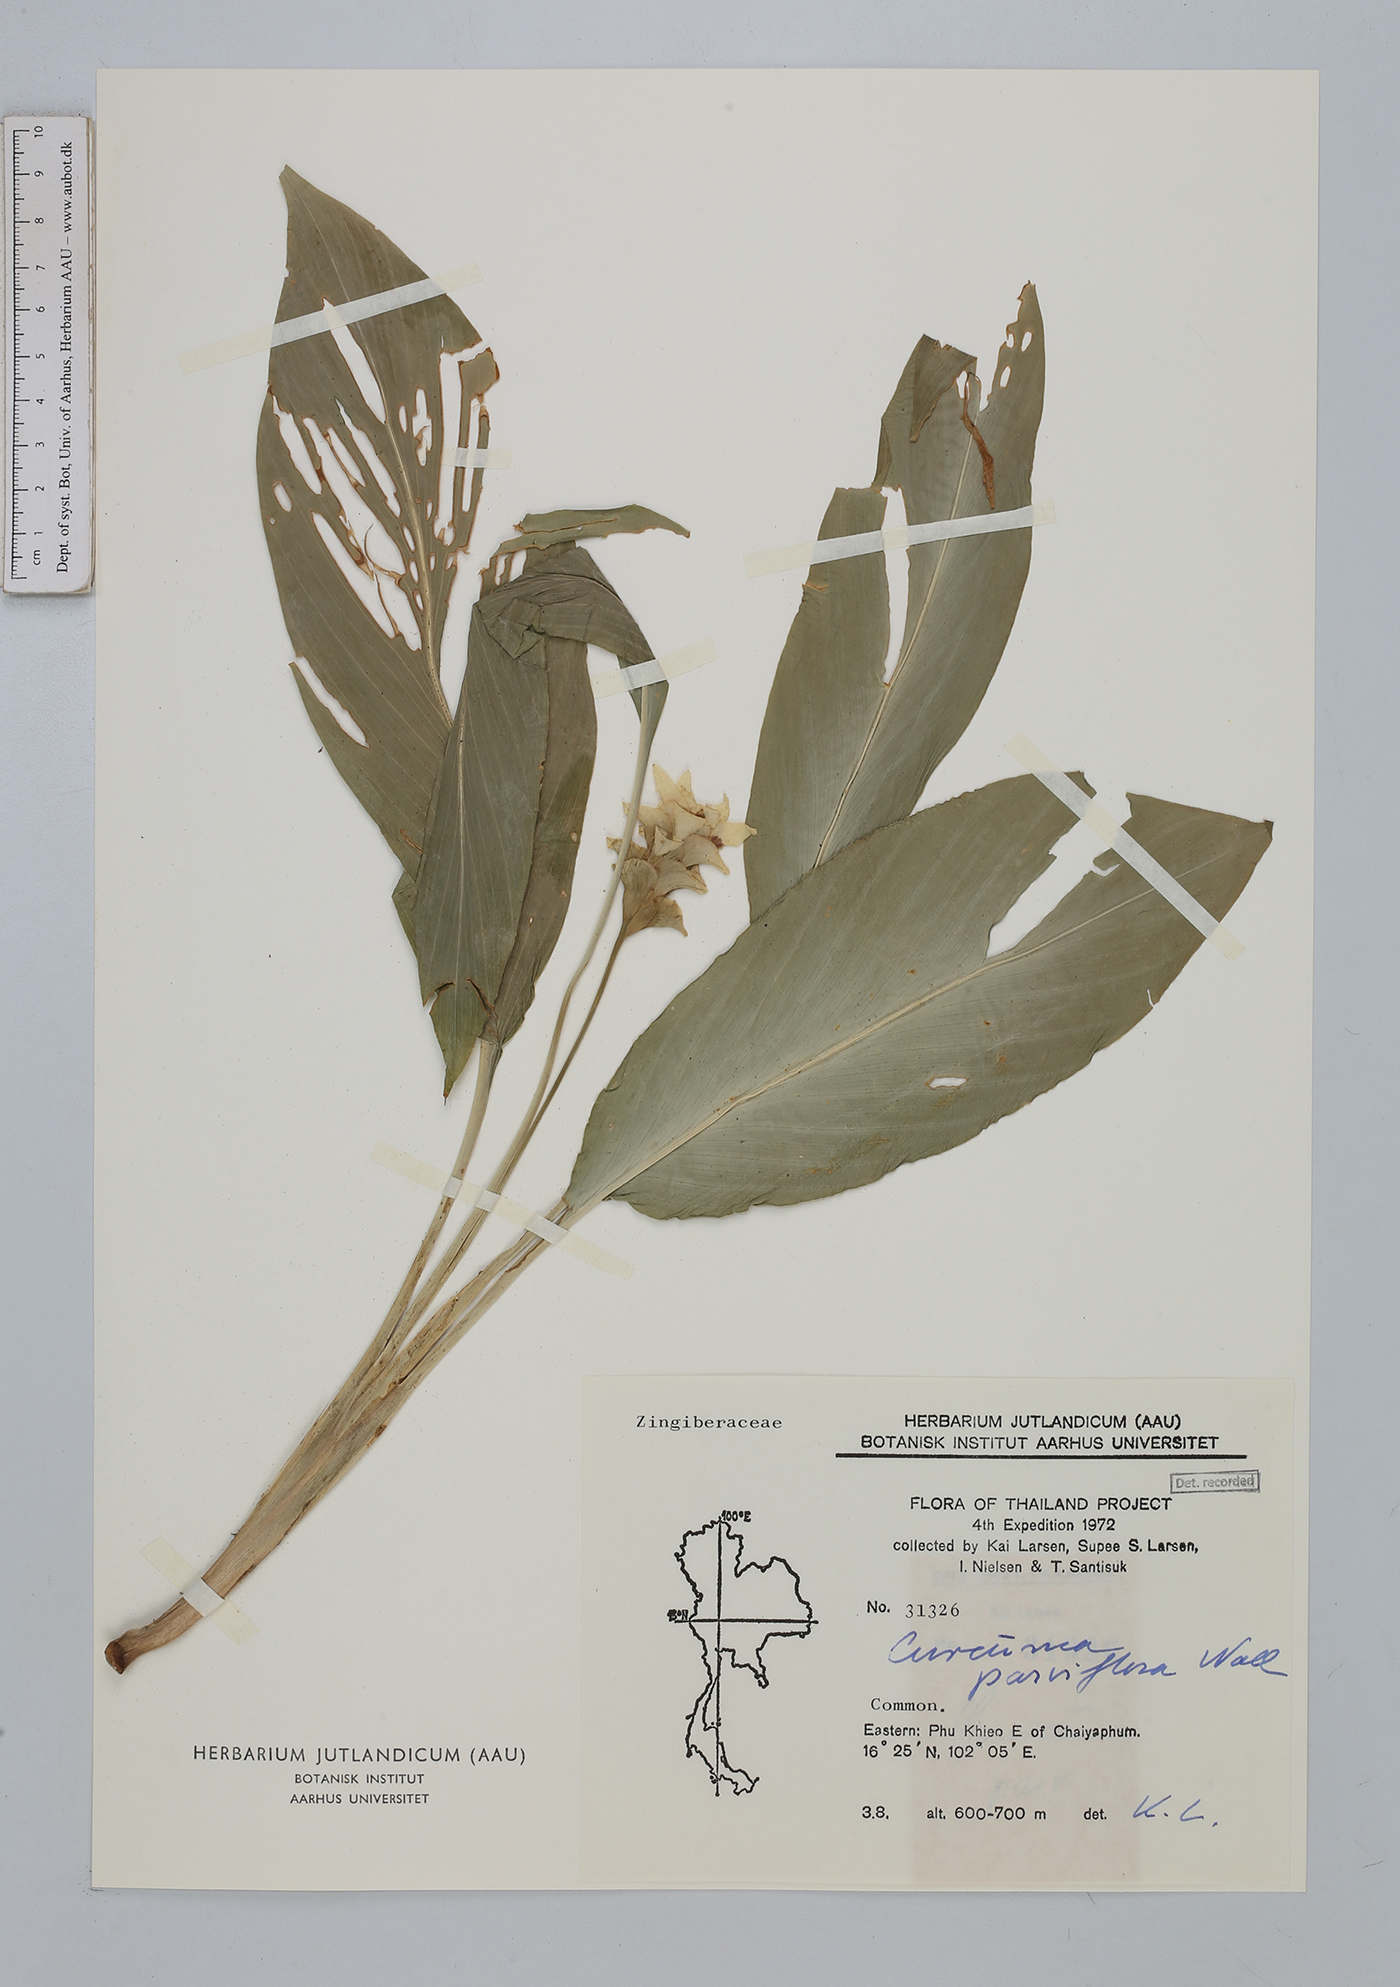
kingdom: Plantae
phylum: Tracheophyta
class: Liliopsida
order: Zingiberales
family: Zingiberaceae
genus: Curcuma
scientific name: Curcuma parviflora
